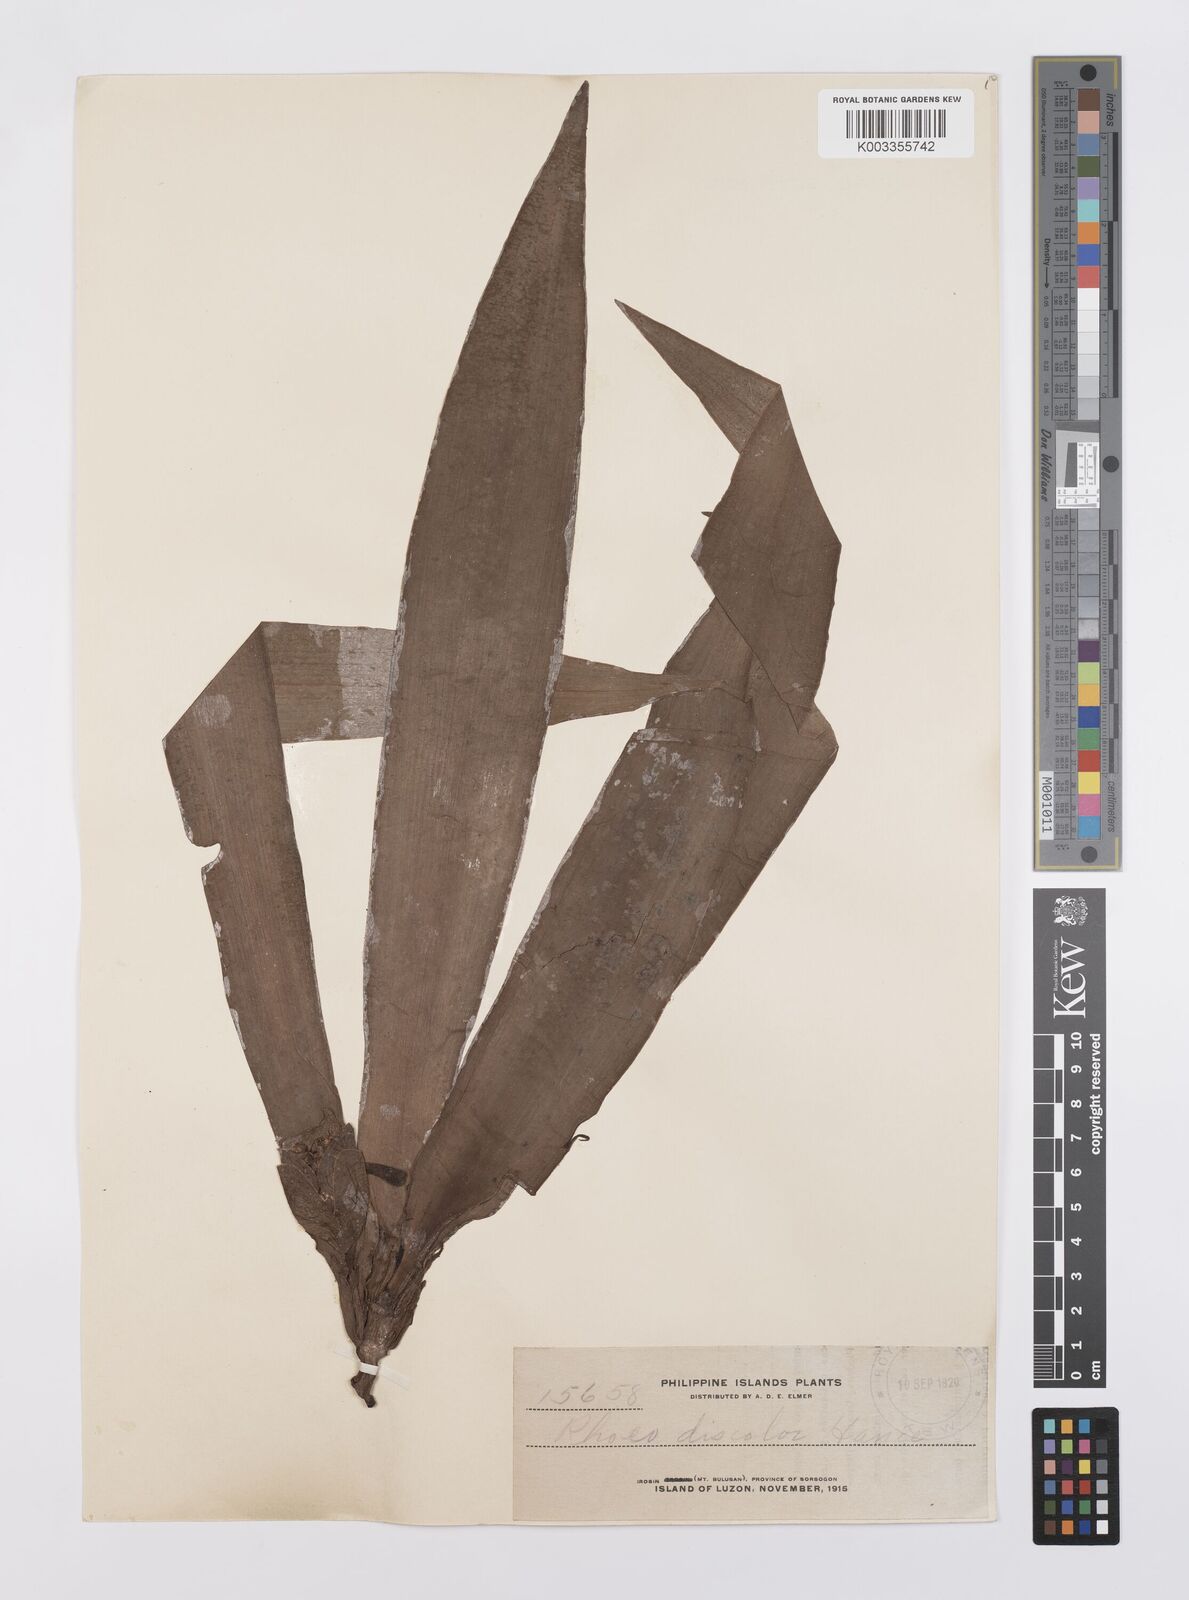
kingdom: Plantae
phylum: Tracheophyta
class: Liliopsida
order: Commelinales
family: Commelinaceae
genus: Tradescantia
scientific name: Tradescantia spathacea
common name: Boatlily
